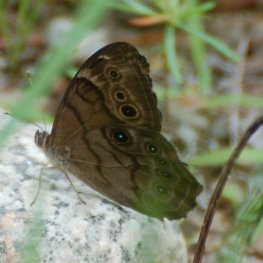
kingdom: Animalia
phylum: Arthropoda
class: Insecta
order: Lepidoptera
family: Nymphalidae
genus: Lethe
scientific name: Lethe anthedon
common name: Northern Pearly-Eye
